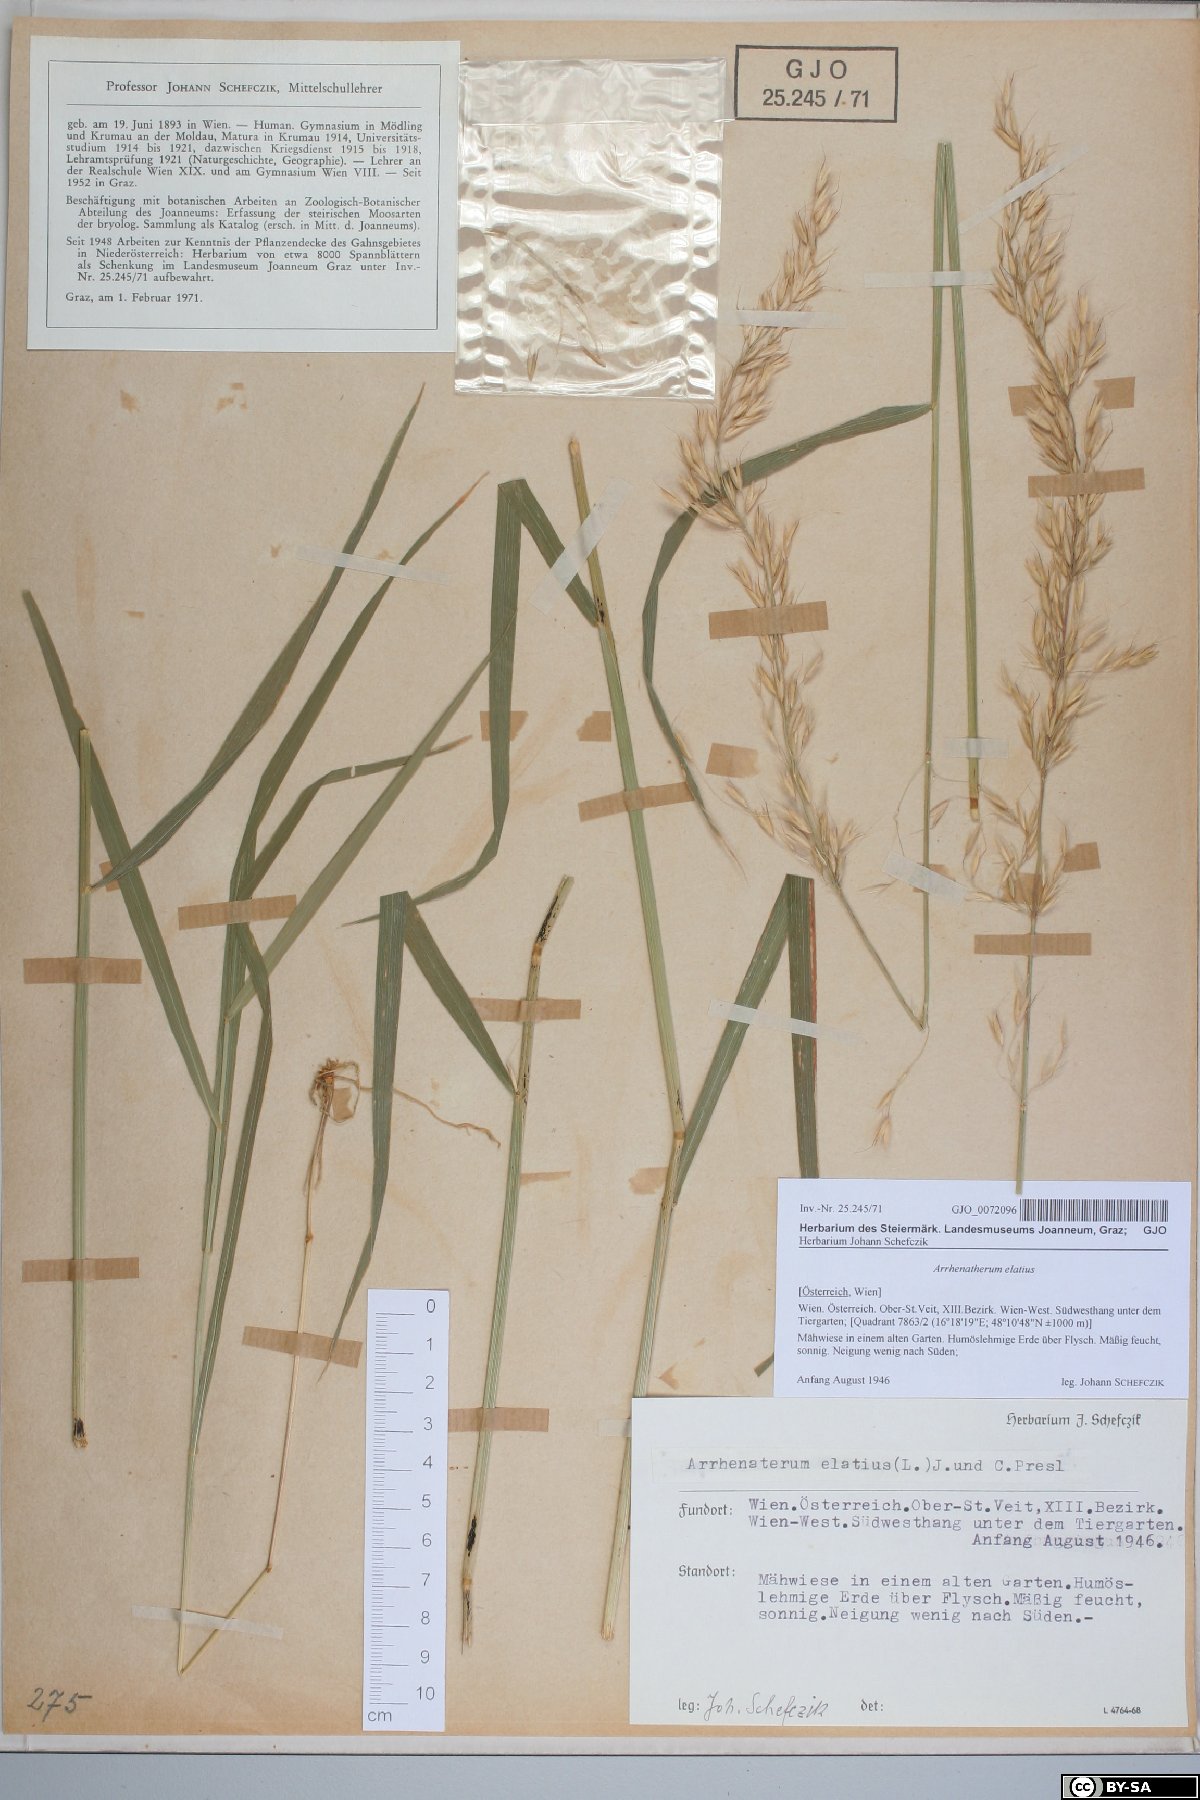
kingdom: Plantae
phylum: Tracheophyta
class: Liliopsida
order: Poales
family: Poaceae
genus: Arrhenatherum
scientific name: Arrhenatherum elatius
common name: Tall oatgrass
